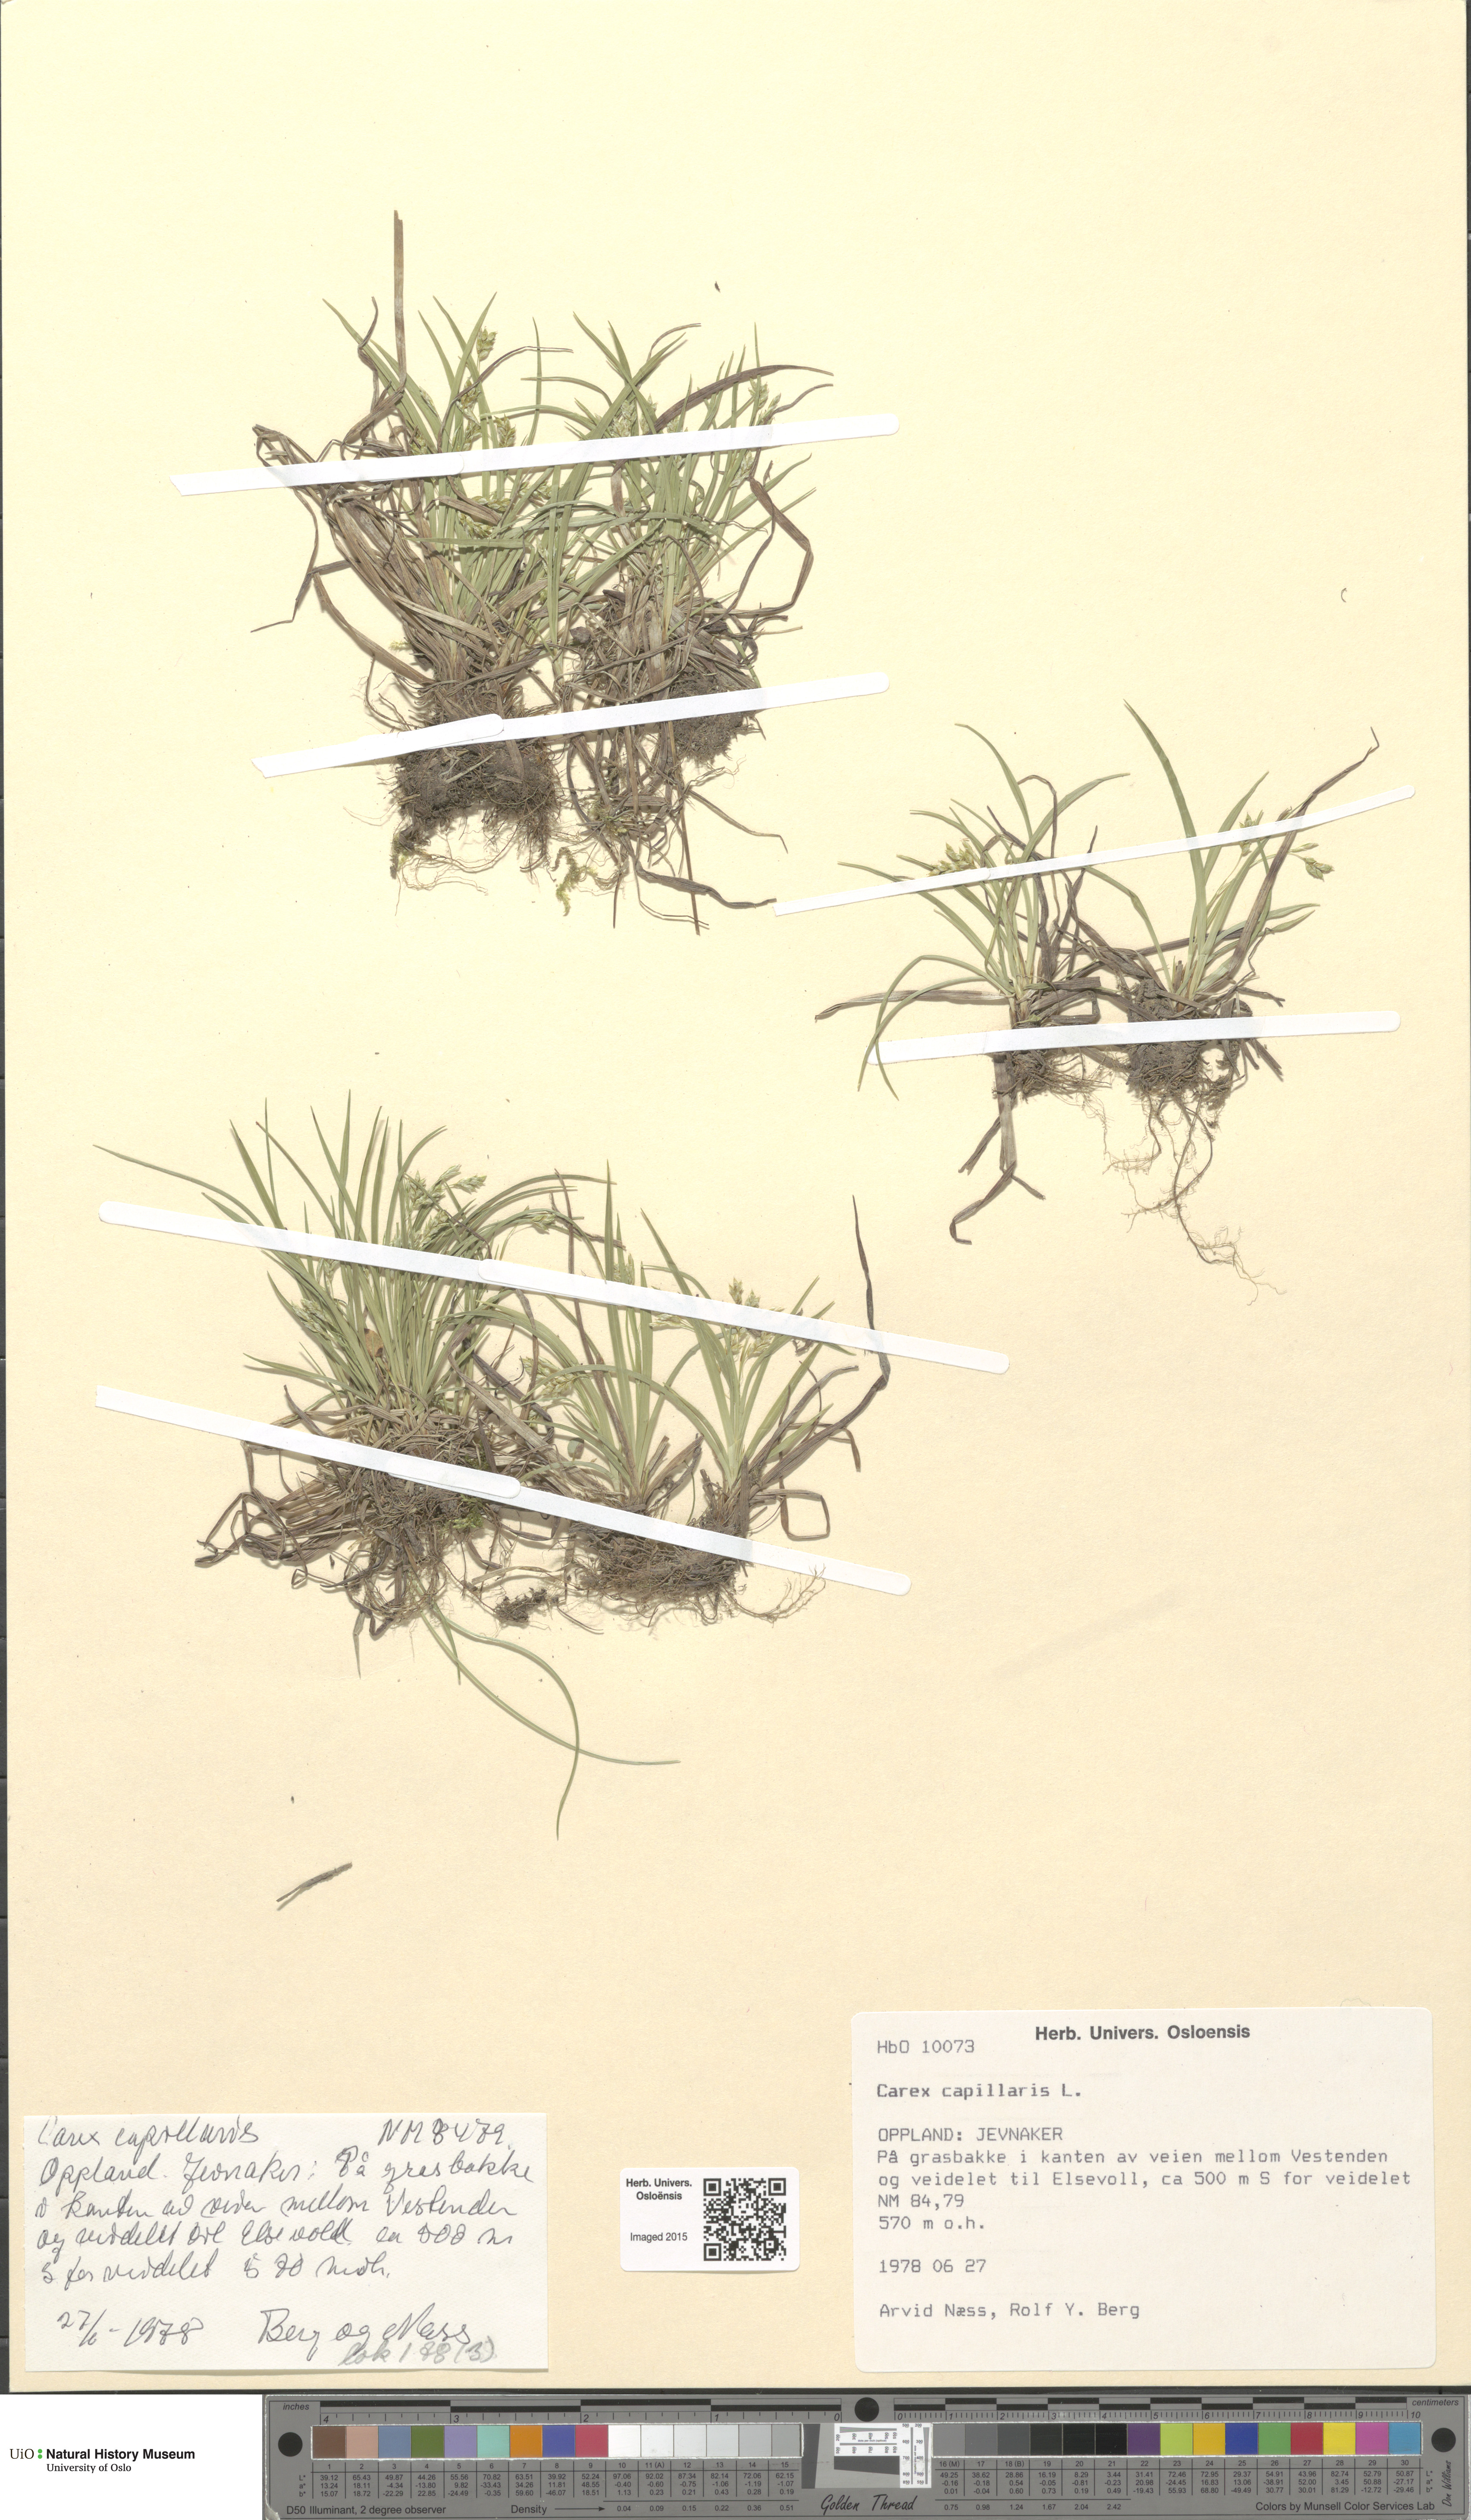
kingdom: Plantae
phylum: Tracheophyta
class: Liliopsida
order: Poales
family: Cyperaceae
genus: Carex
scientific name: Carex capillaris
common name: Hair sedge
